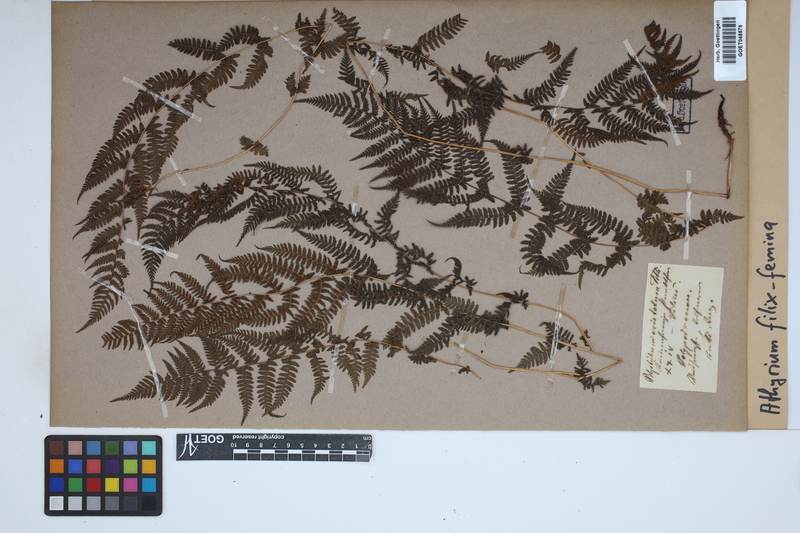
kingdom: Plantae
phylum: Tracheophyta
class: Polypodiopsida
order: Polypodiales
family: Athyriaceae
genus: Athyrium
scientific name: Athyrium filix-femina
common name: Lady fern
